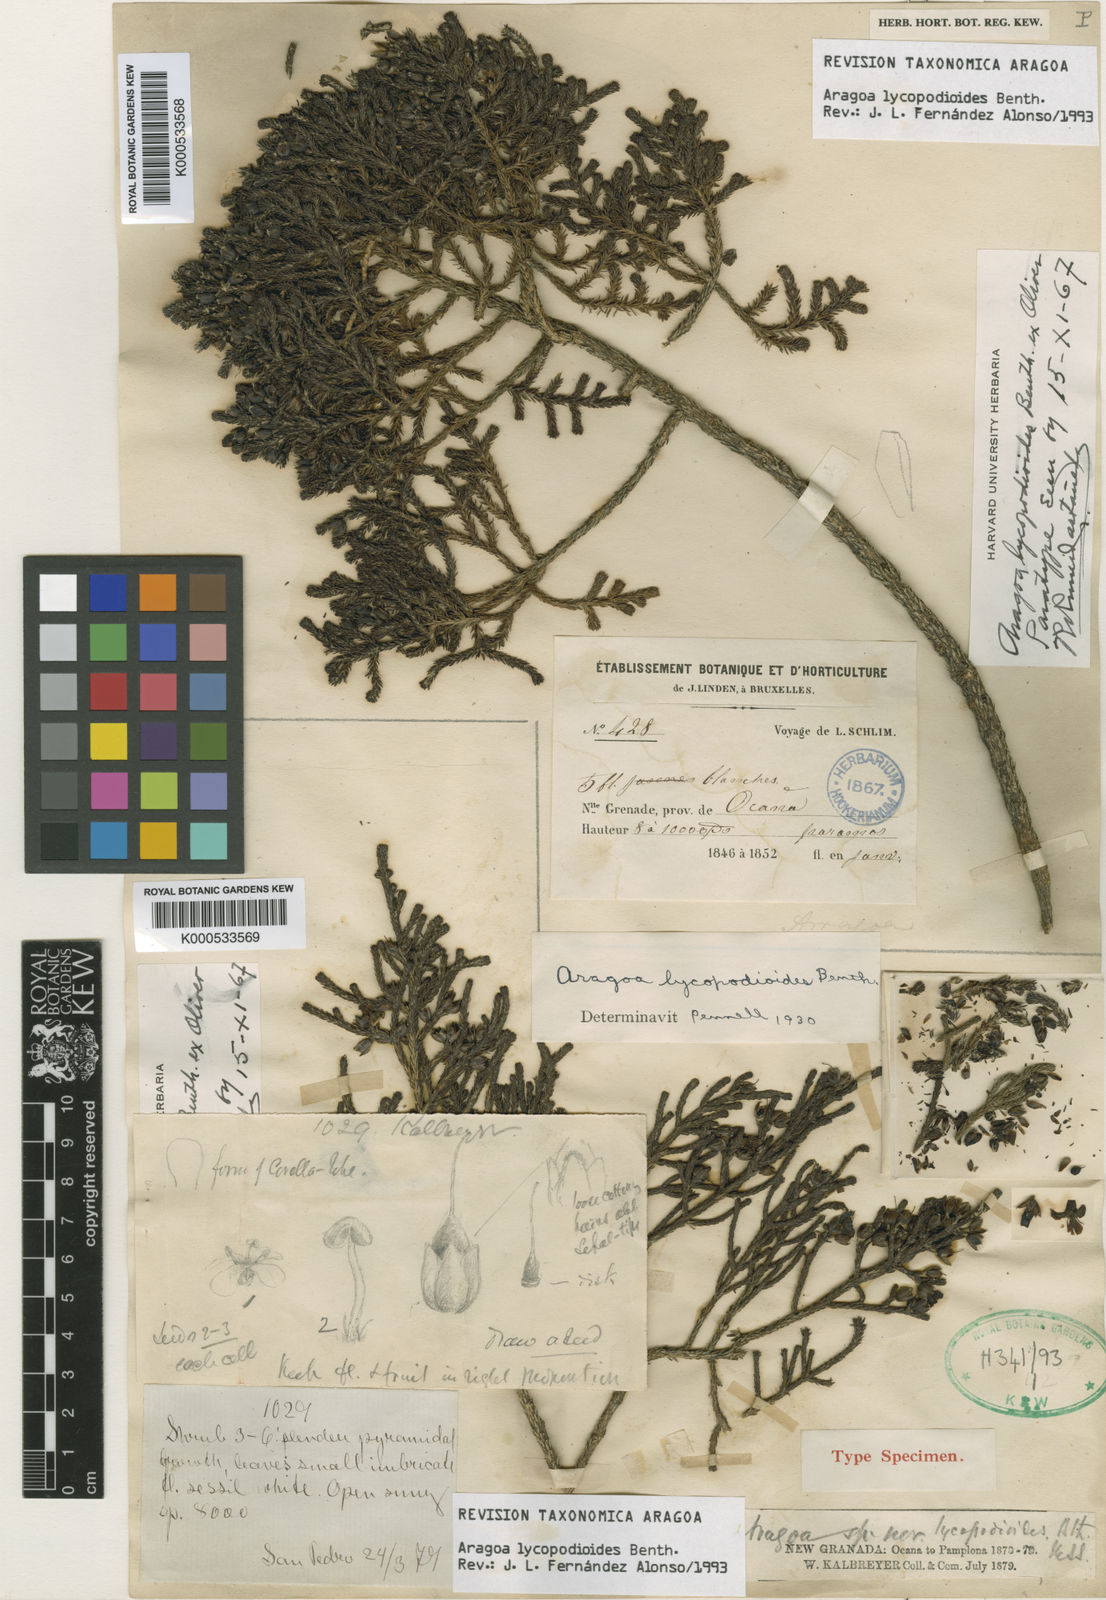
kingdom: Plantae
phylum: Tracheophyta
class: Magnoliopsida
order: Lamiales
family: Plantaginaceae
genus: Aragoa
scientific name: Aragoa
